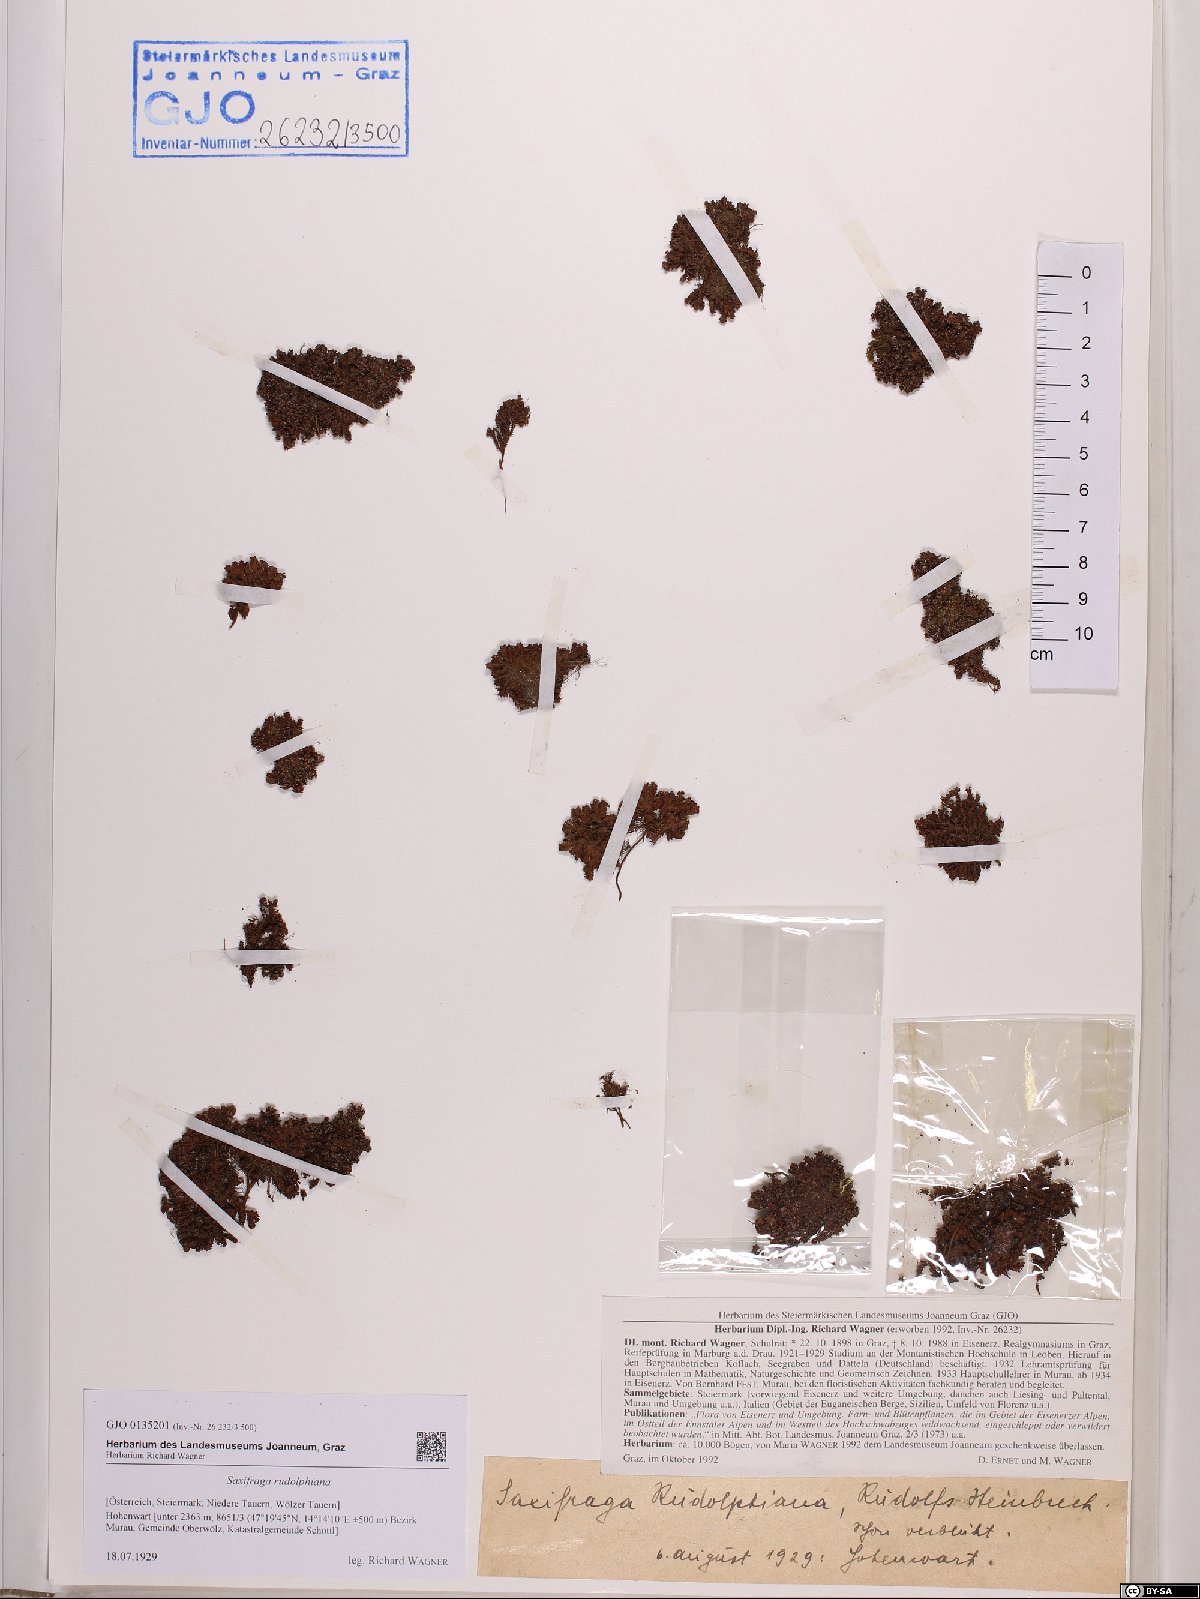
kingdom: Plantae
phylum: Tracheophyta
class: Magnoliopsida
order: Saxifragales
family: Saxifragaceae
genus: Saxifraga
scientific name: Saxifraga oppositifolia
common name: Purple saxifrage
